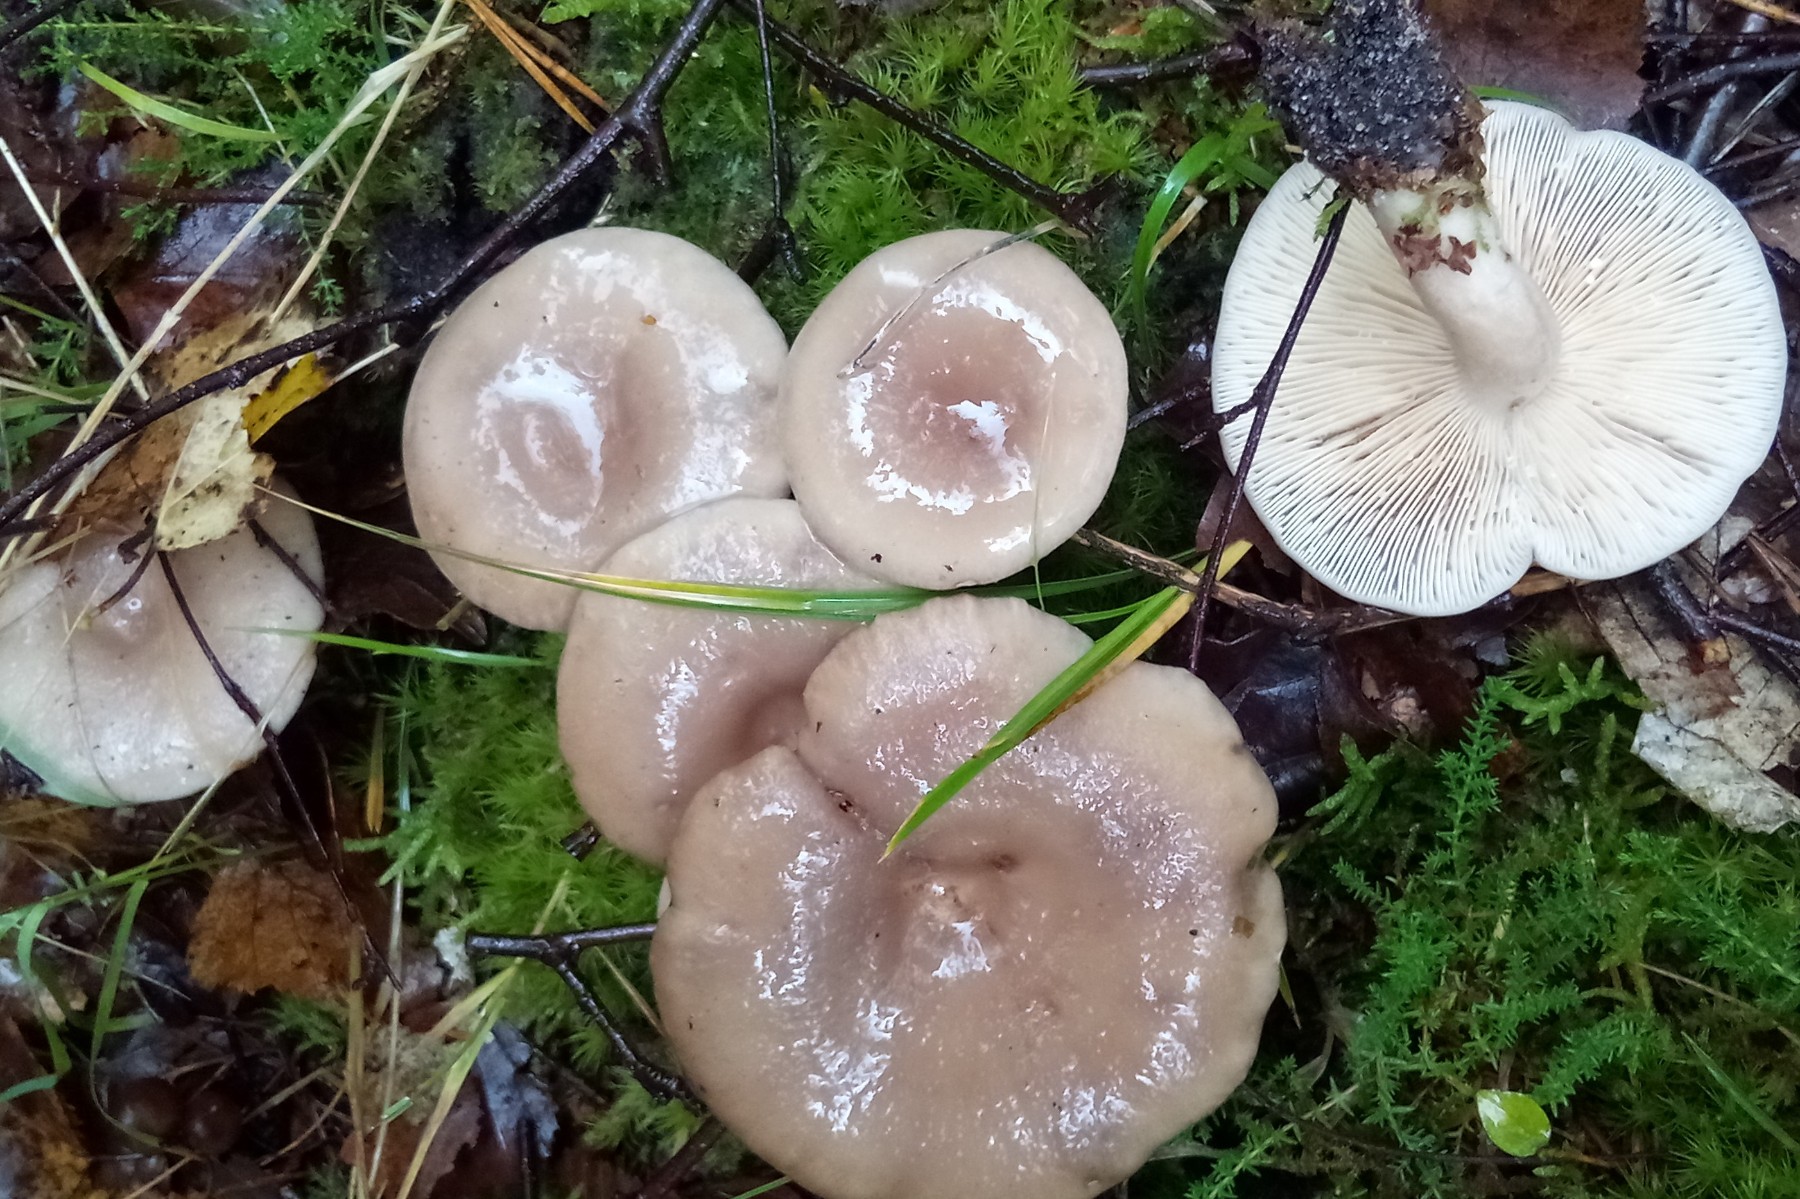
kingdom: Fungi
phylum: Basidiomycota
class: Agaricomycetes
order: Russulales
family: Russulaceae
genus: Lactarius
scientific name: Lactarius vietus
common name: violetgrå mælkehat
